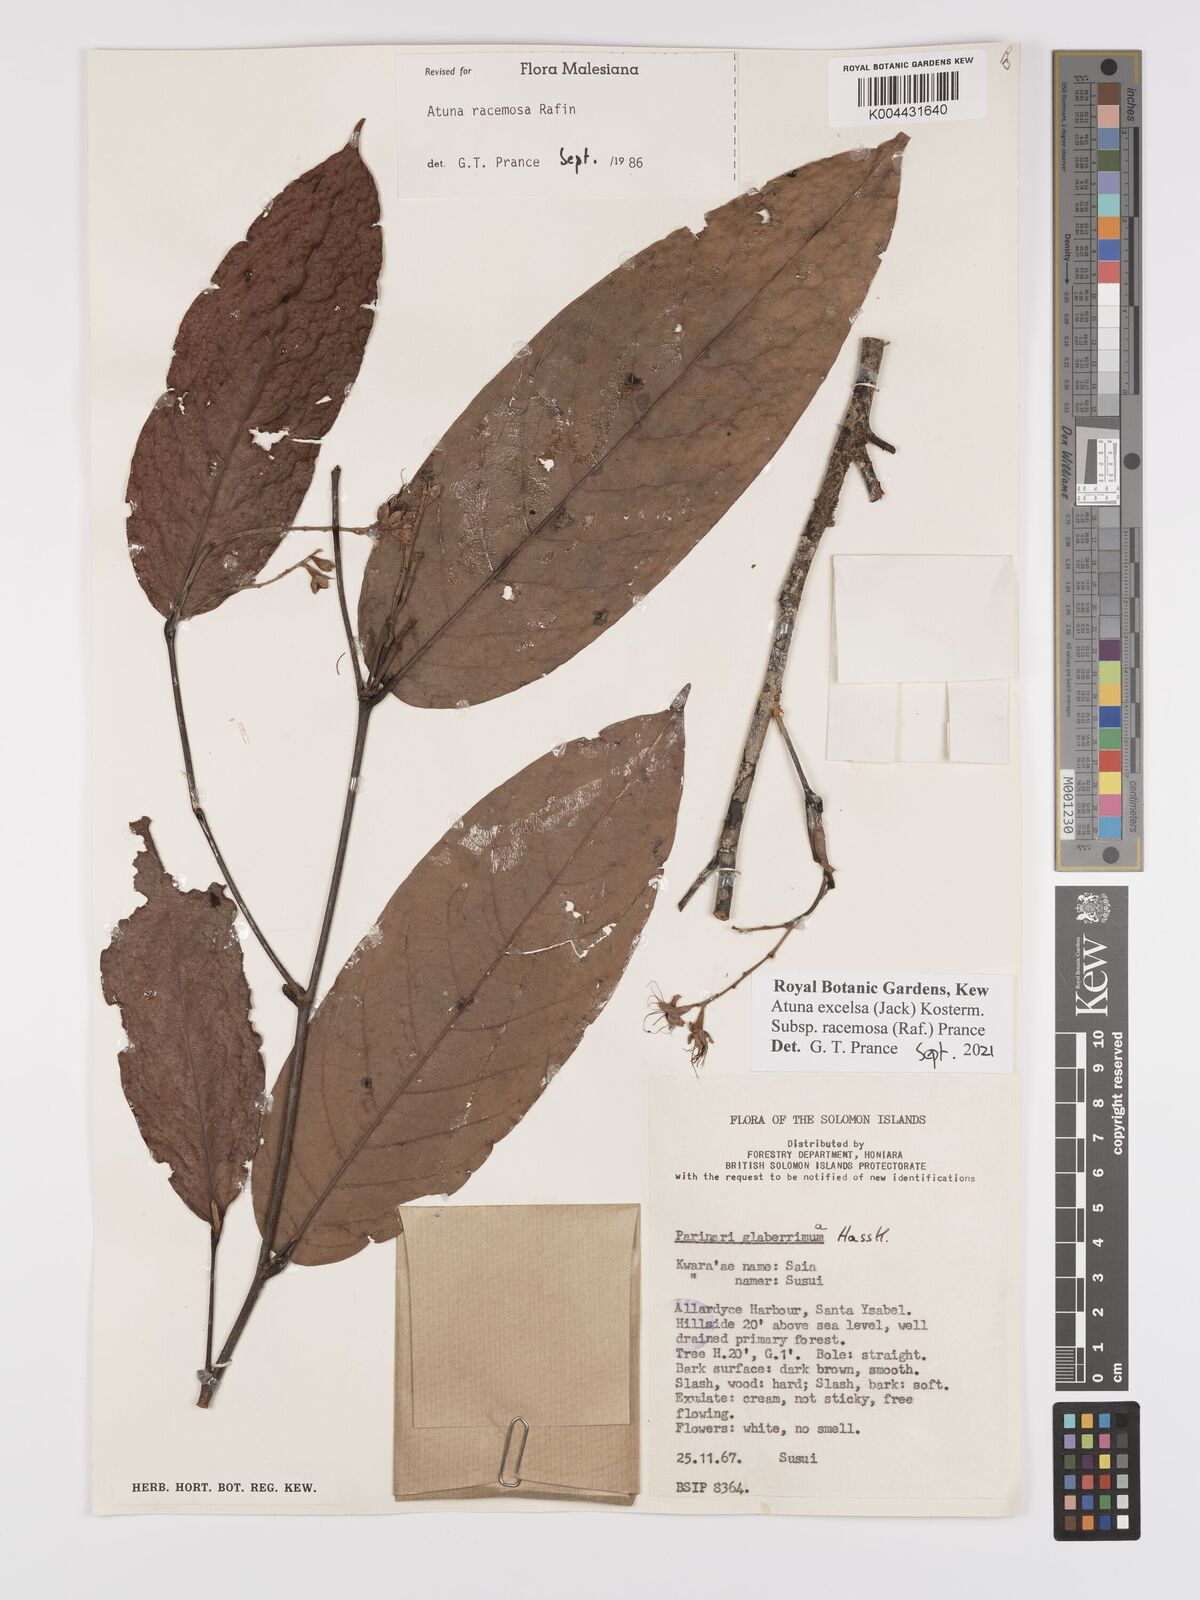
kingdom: Plantae
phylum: Tracheophyta
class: Magnoliopsida
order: Malpighiales
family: Chrysobalanaceae
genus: Atuna
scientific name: Atuna
